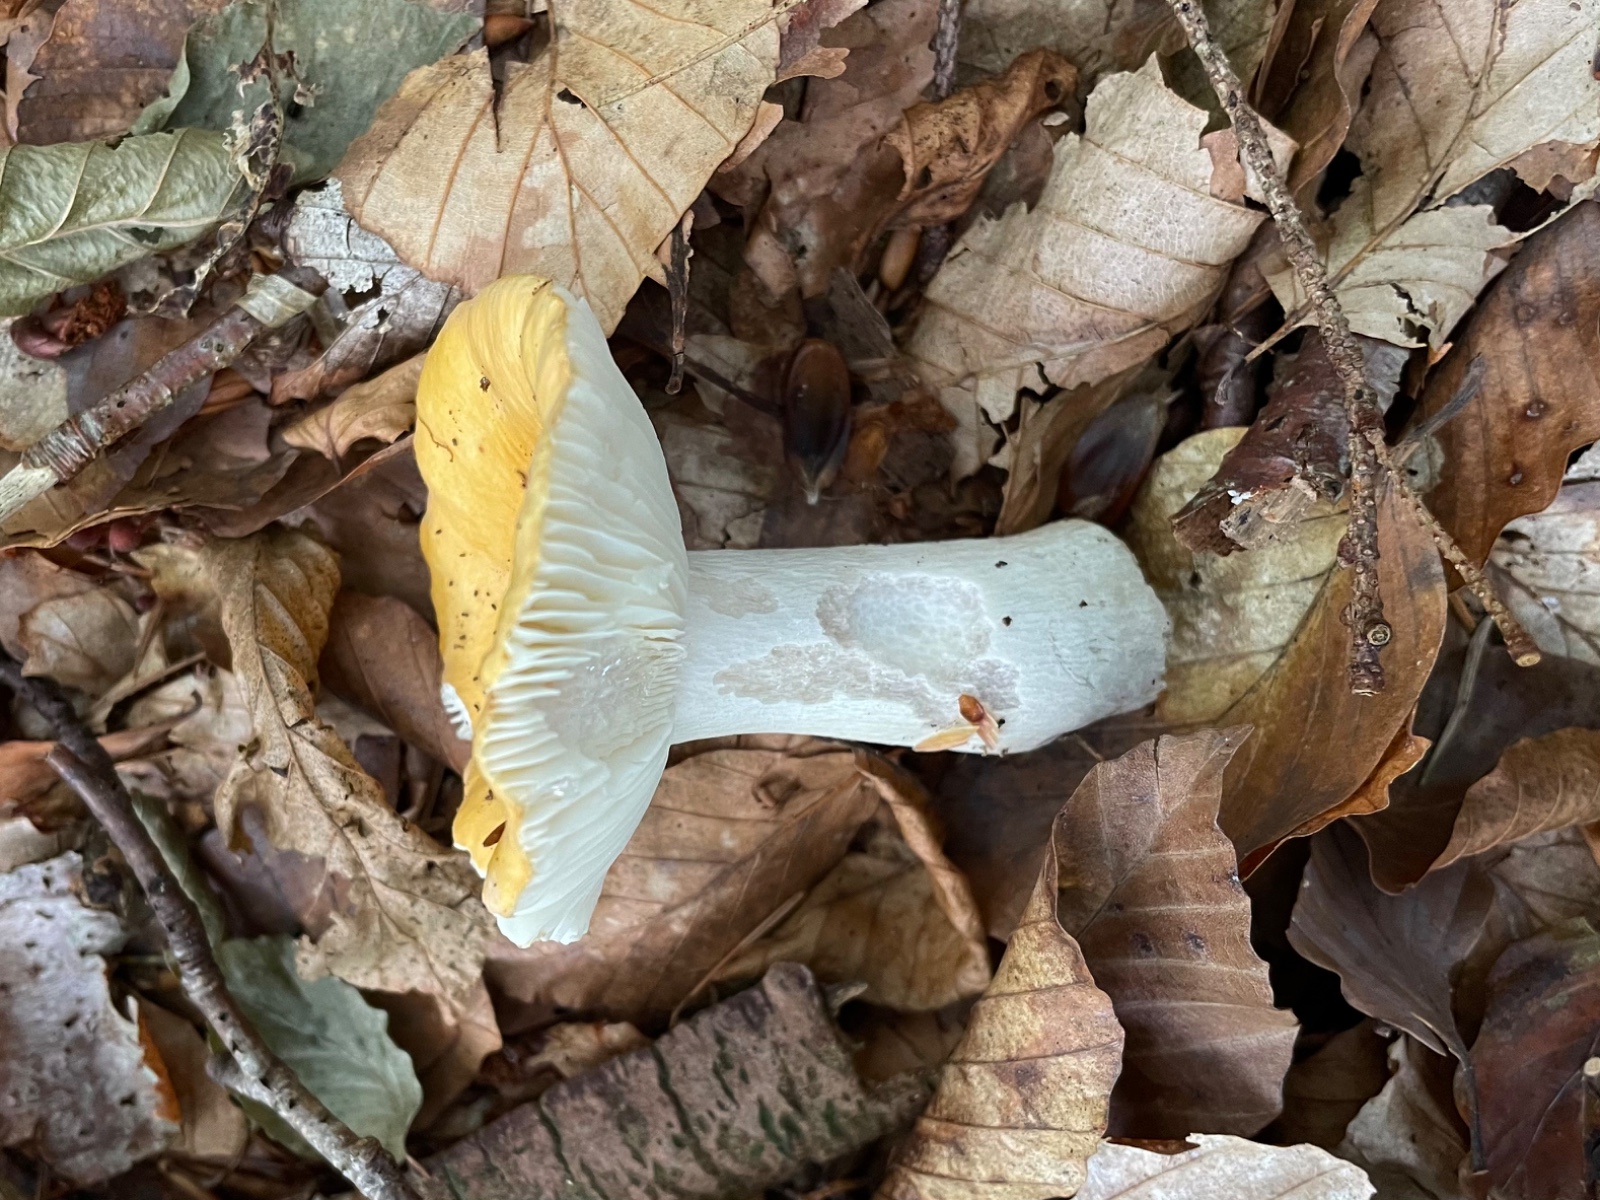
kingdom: Fungi
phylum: Basidiomycota
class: Agaricomycetes
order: Russulales
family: Russulaceae
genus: Russula
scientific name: Russula ochroleuca
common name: okkergul skørhat
